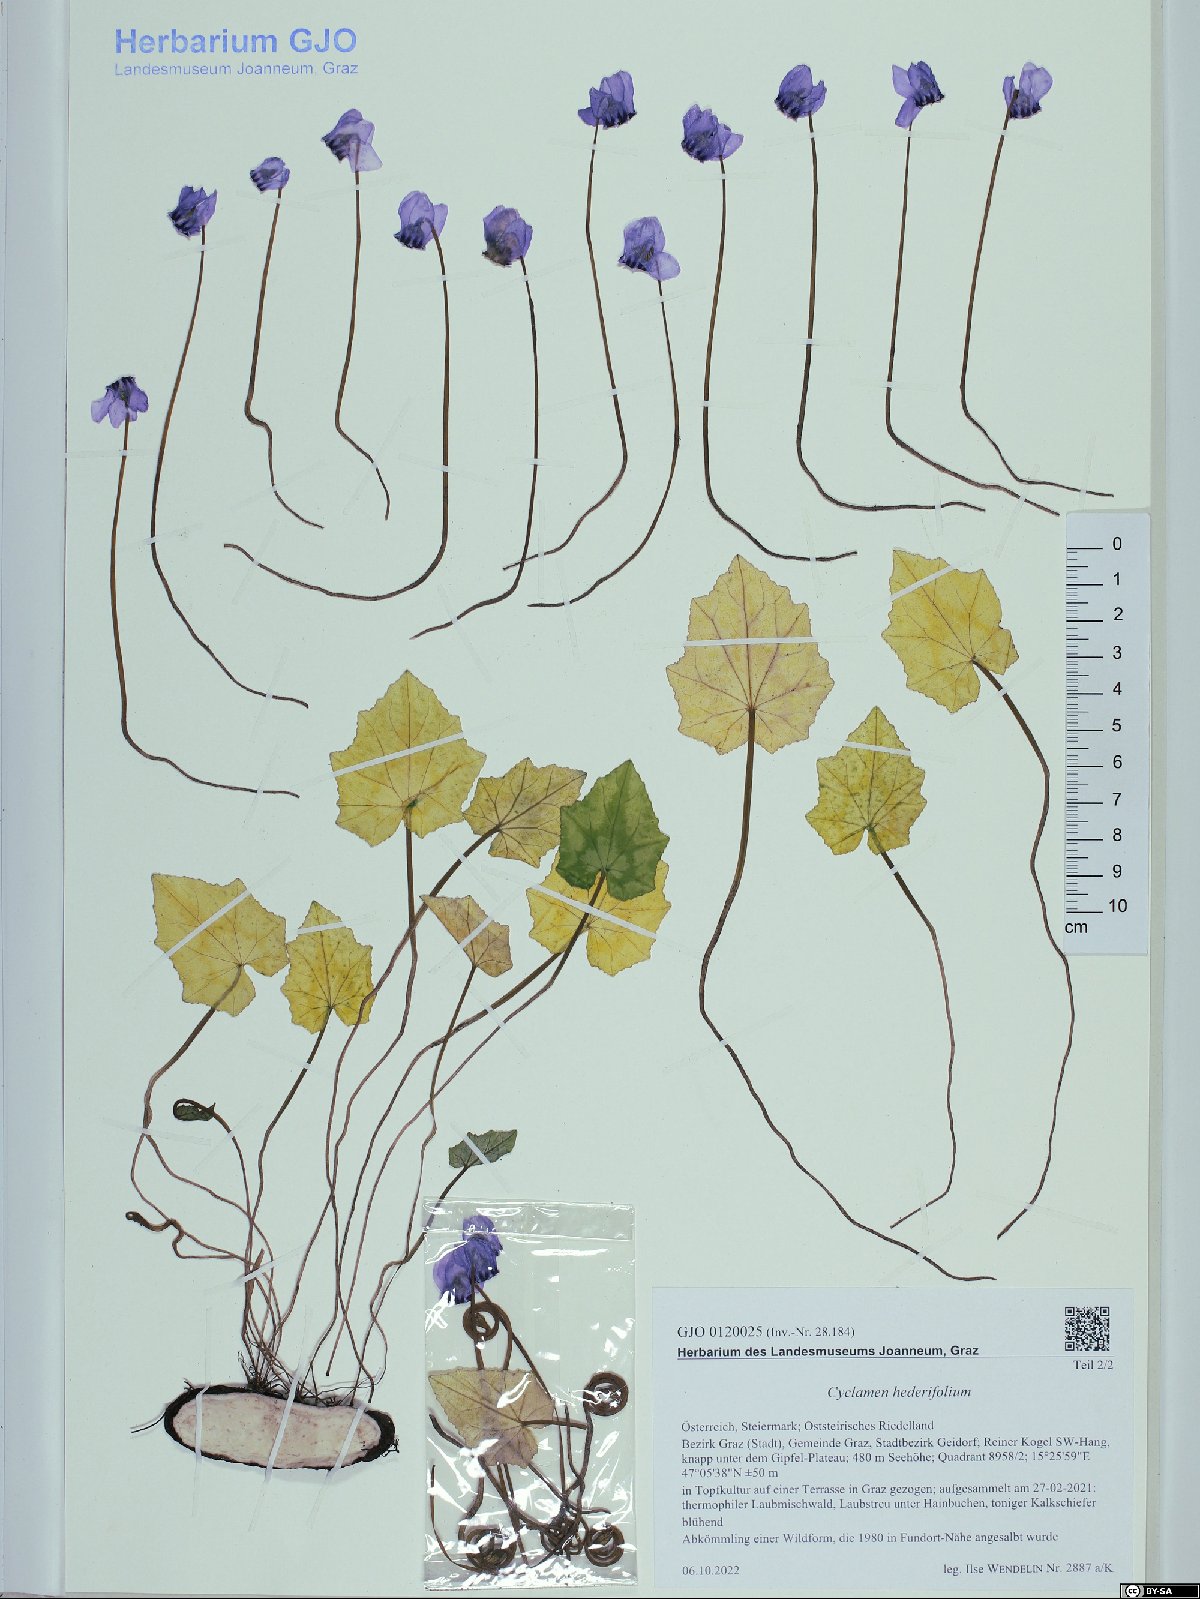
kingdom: Plantae
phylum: Tracheophyta
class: Magnoliopsida
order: Ericales
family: Primulaceae
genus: Cyclamen
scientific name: Cyclamen hederifolium
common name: Sowbread
